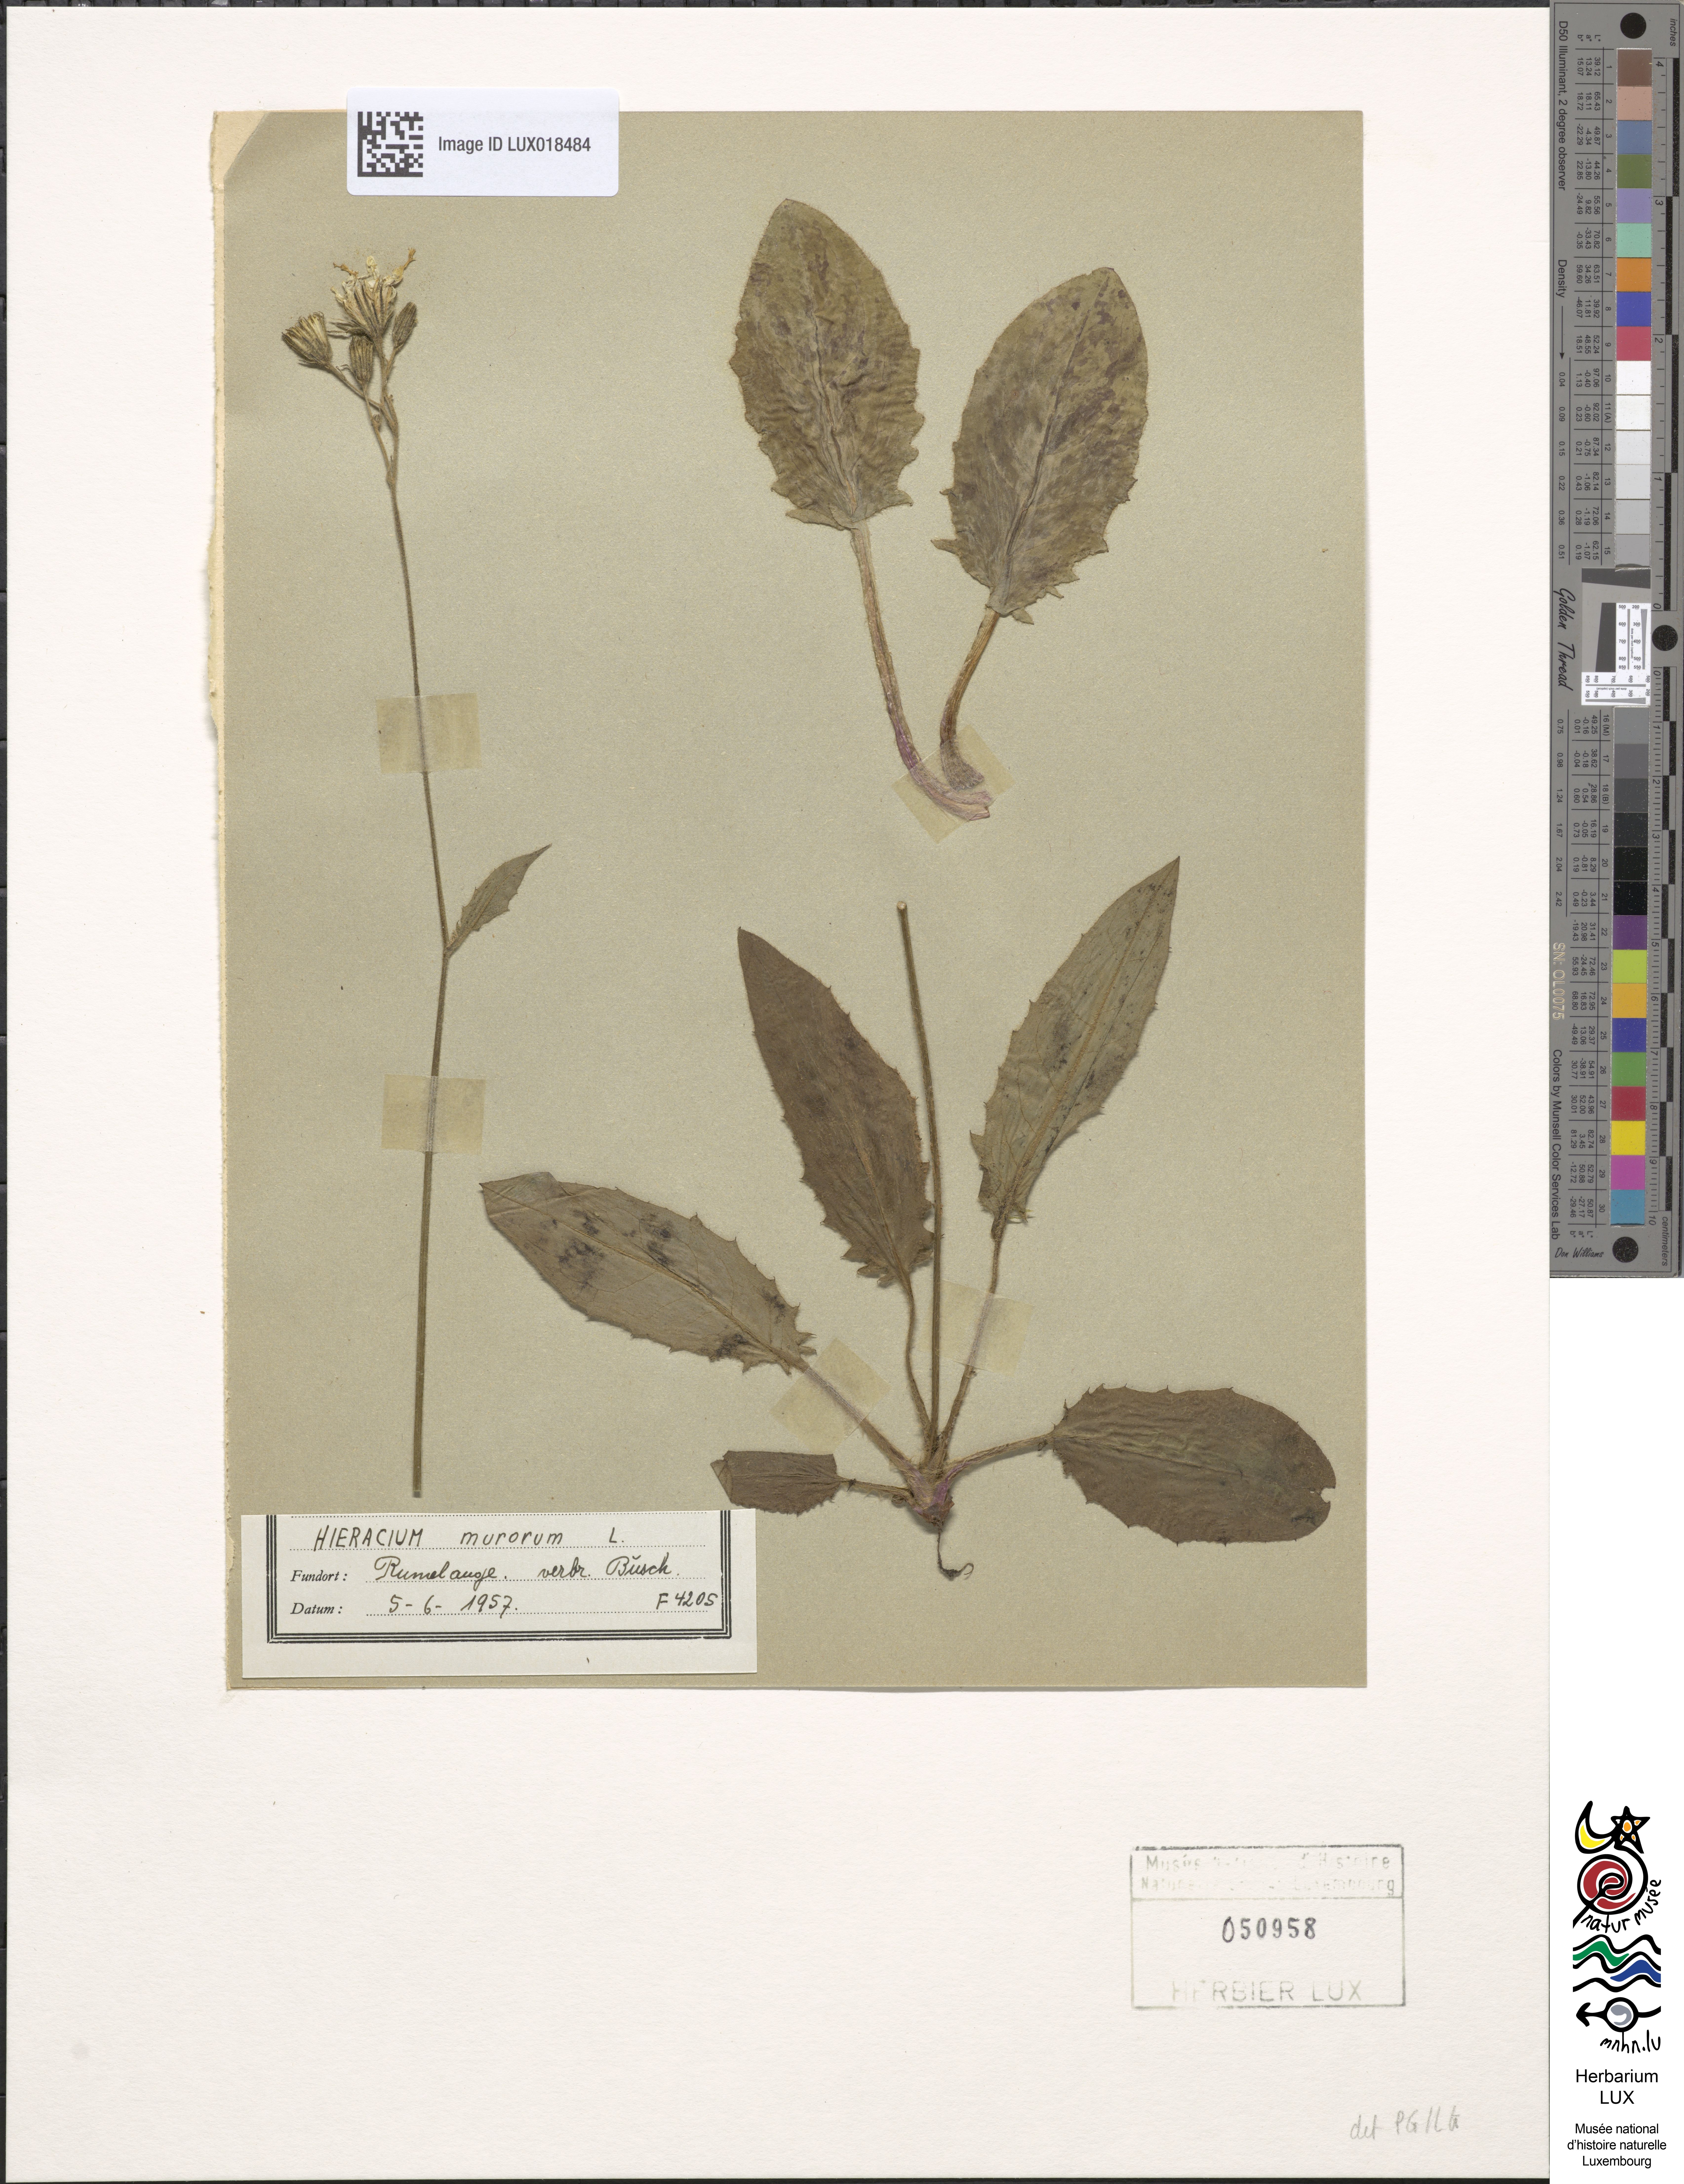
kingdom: Plantae
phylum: Tracheophyta
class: Magnoliopsida
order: Asterales
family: Asteraceae
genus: Hieracium
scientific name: Hieracium murorum
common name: Wall hawkweed
